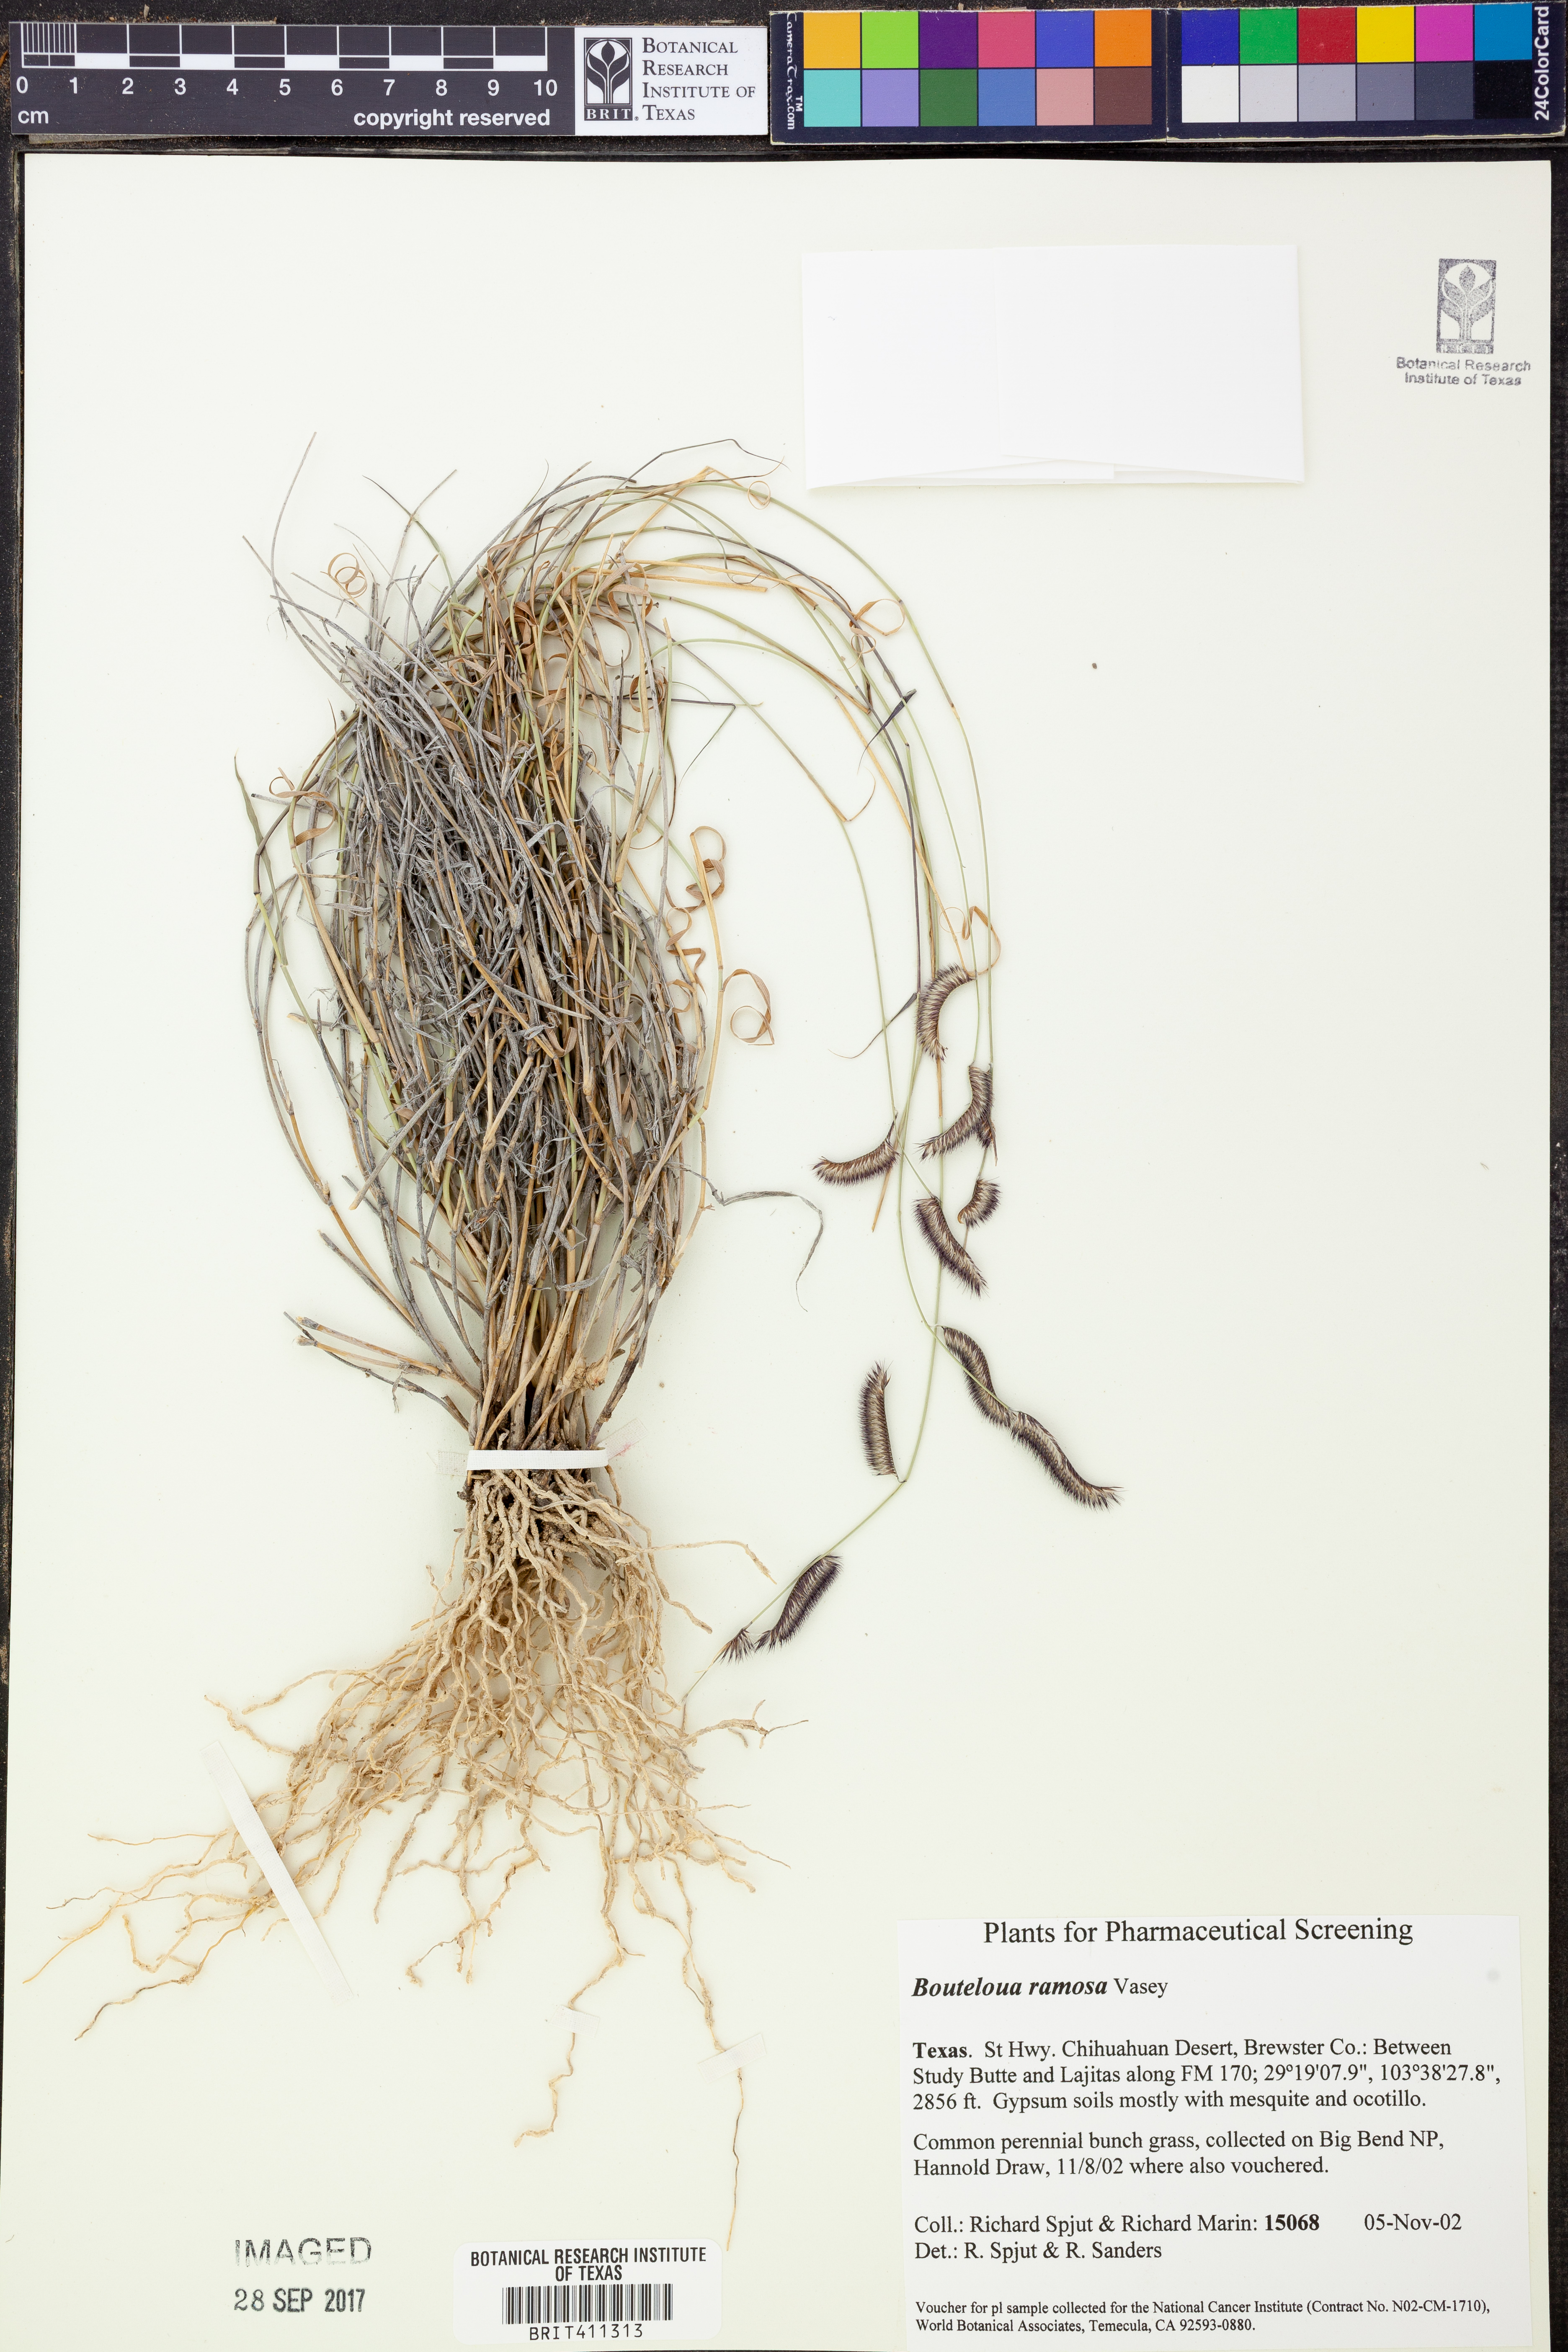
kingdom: Plantae
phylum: Tracheophyta
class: Liliopsida
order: Poales
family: Poaceae
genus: Bouteloua
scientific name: Bouteloua ramosa
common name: Chino grama
